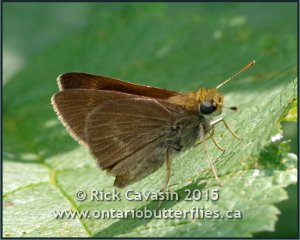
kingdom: Animalia
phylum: Arthropoda
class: Insecta
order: Lepidoptera
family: Hesperiidae
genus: Polites
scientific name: Polites egeremet
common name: Northern Broken-Dash
